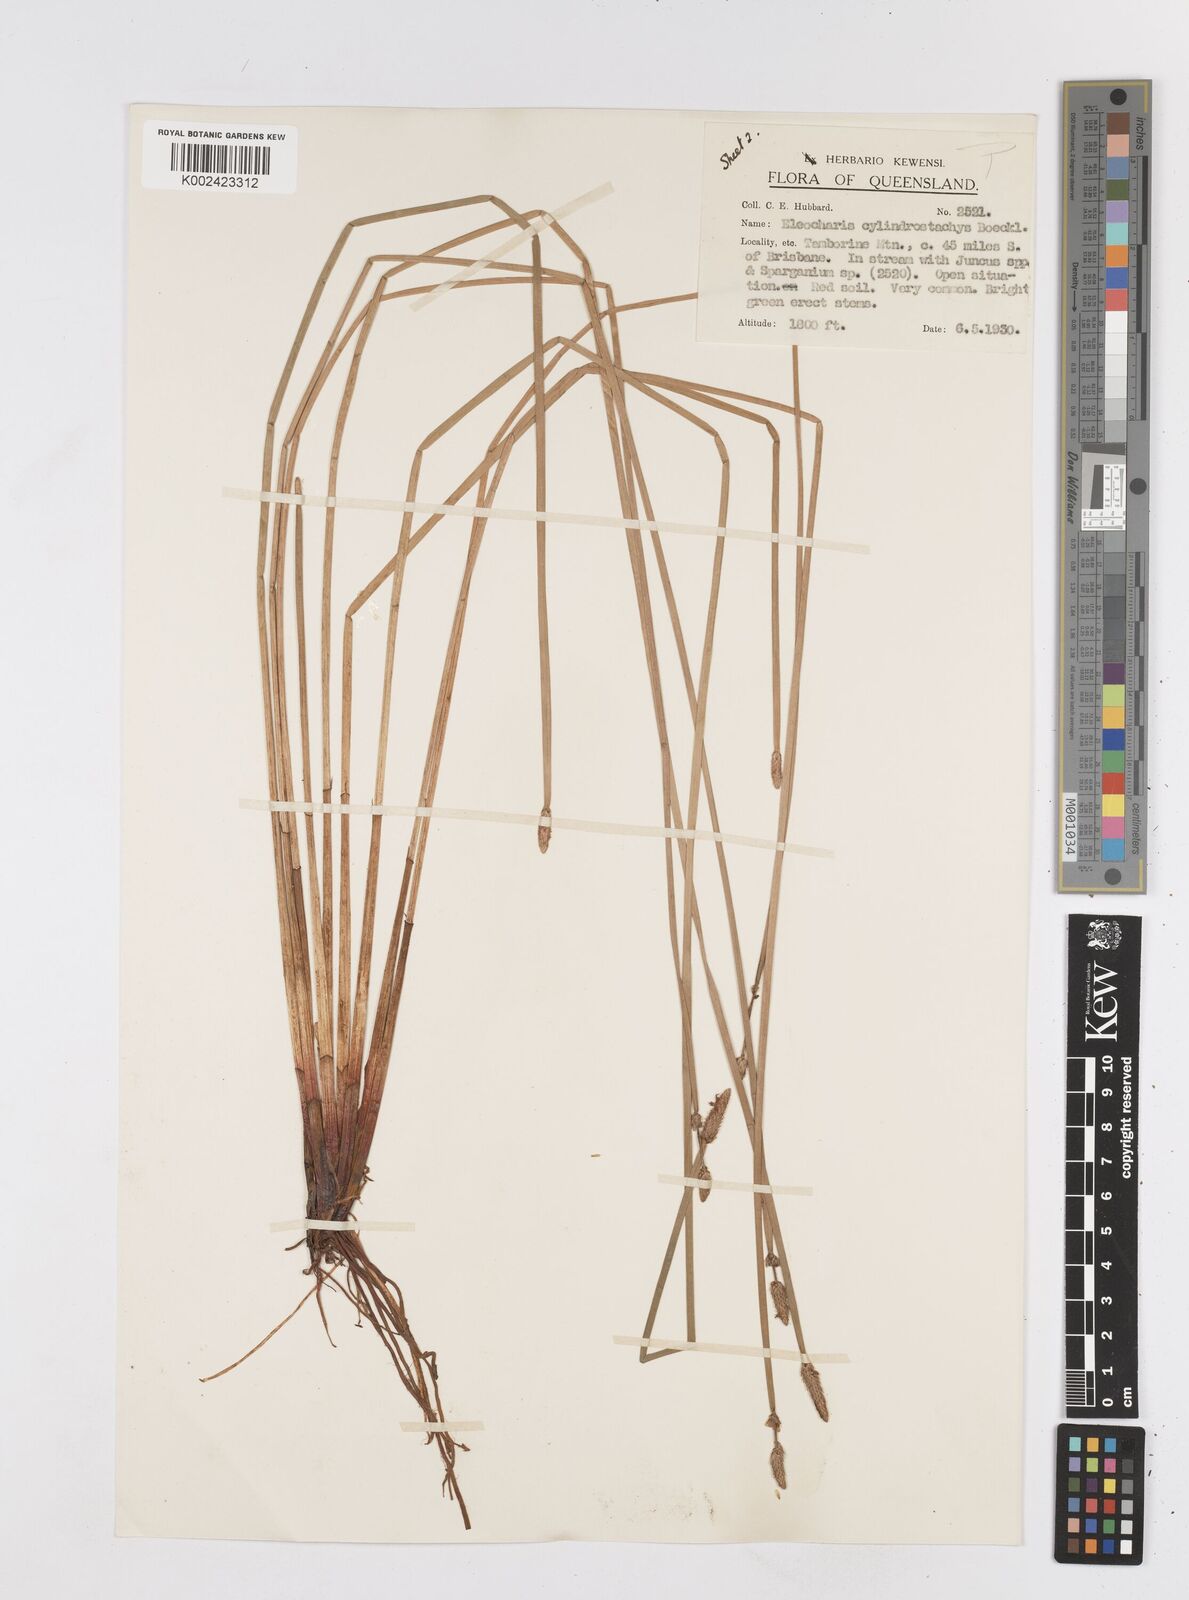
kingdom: Plantae
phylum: Tracheophyta
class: Liliopsida
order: Poales
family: Cyperaceae
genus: Eleocharis
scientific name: Eleocharis cylindrostachys
